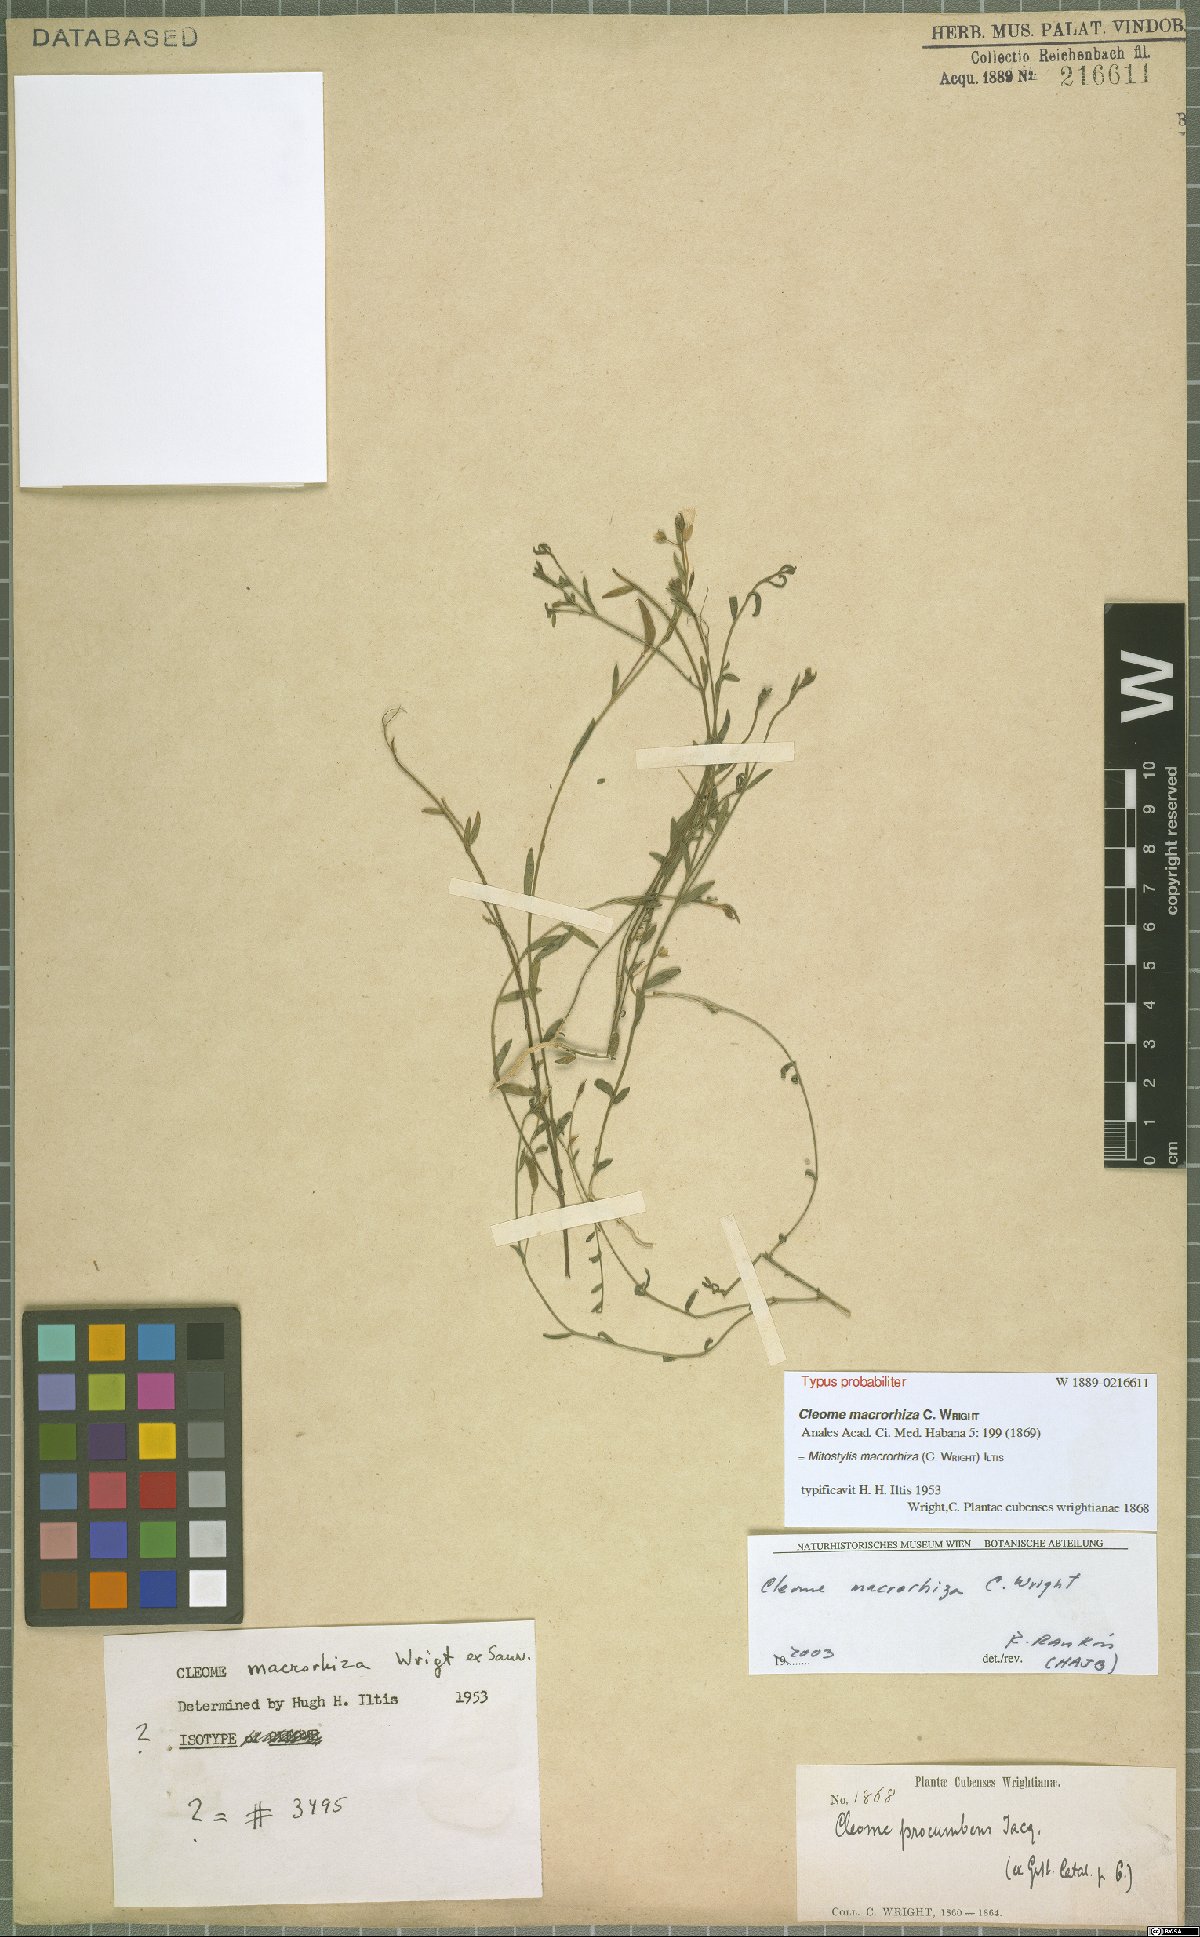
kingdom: Plantae
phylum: Tracheophyta
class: Magnoliopsida
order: Brassicales
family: Cleomaceae
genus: Physostemon
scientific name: Physostemon macrorhizus
